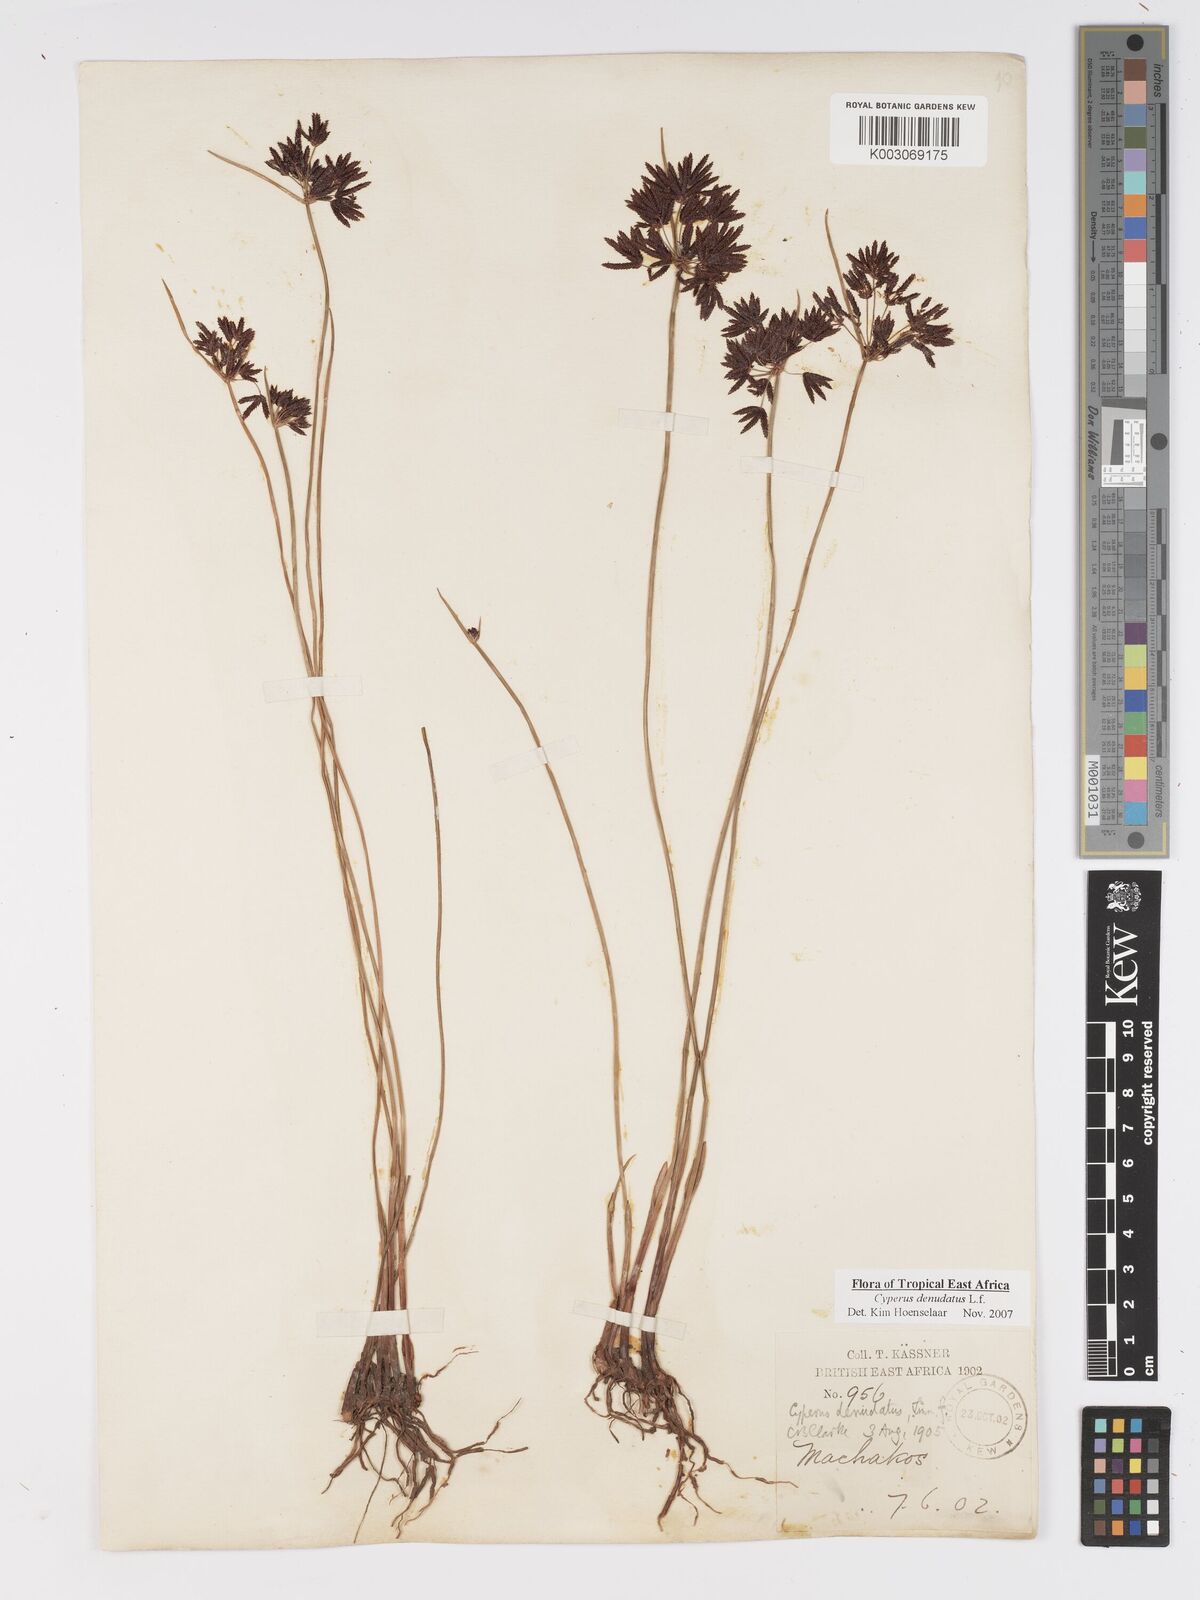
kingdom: Plantae
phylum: Tracheophyta
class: Liliopsida
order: Poales
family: Cyperaceae
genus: Cyperus
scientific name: Cyperus platycaulis
